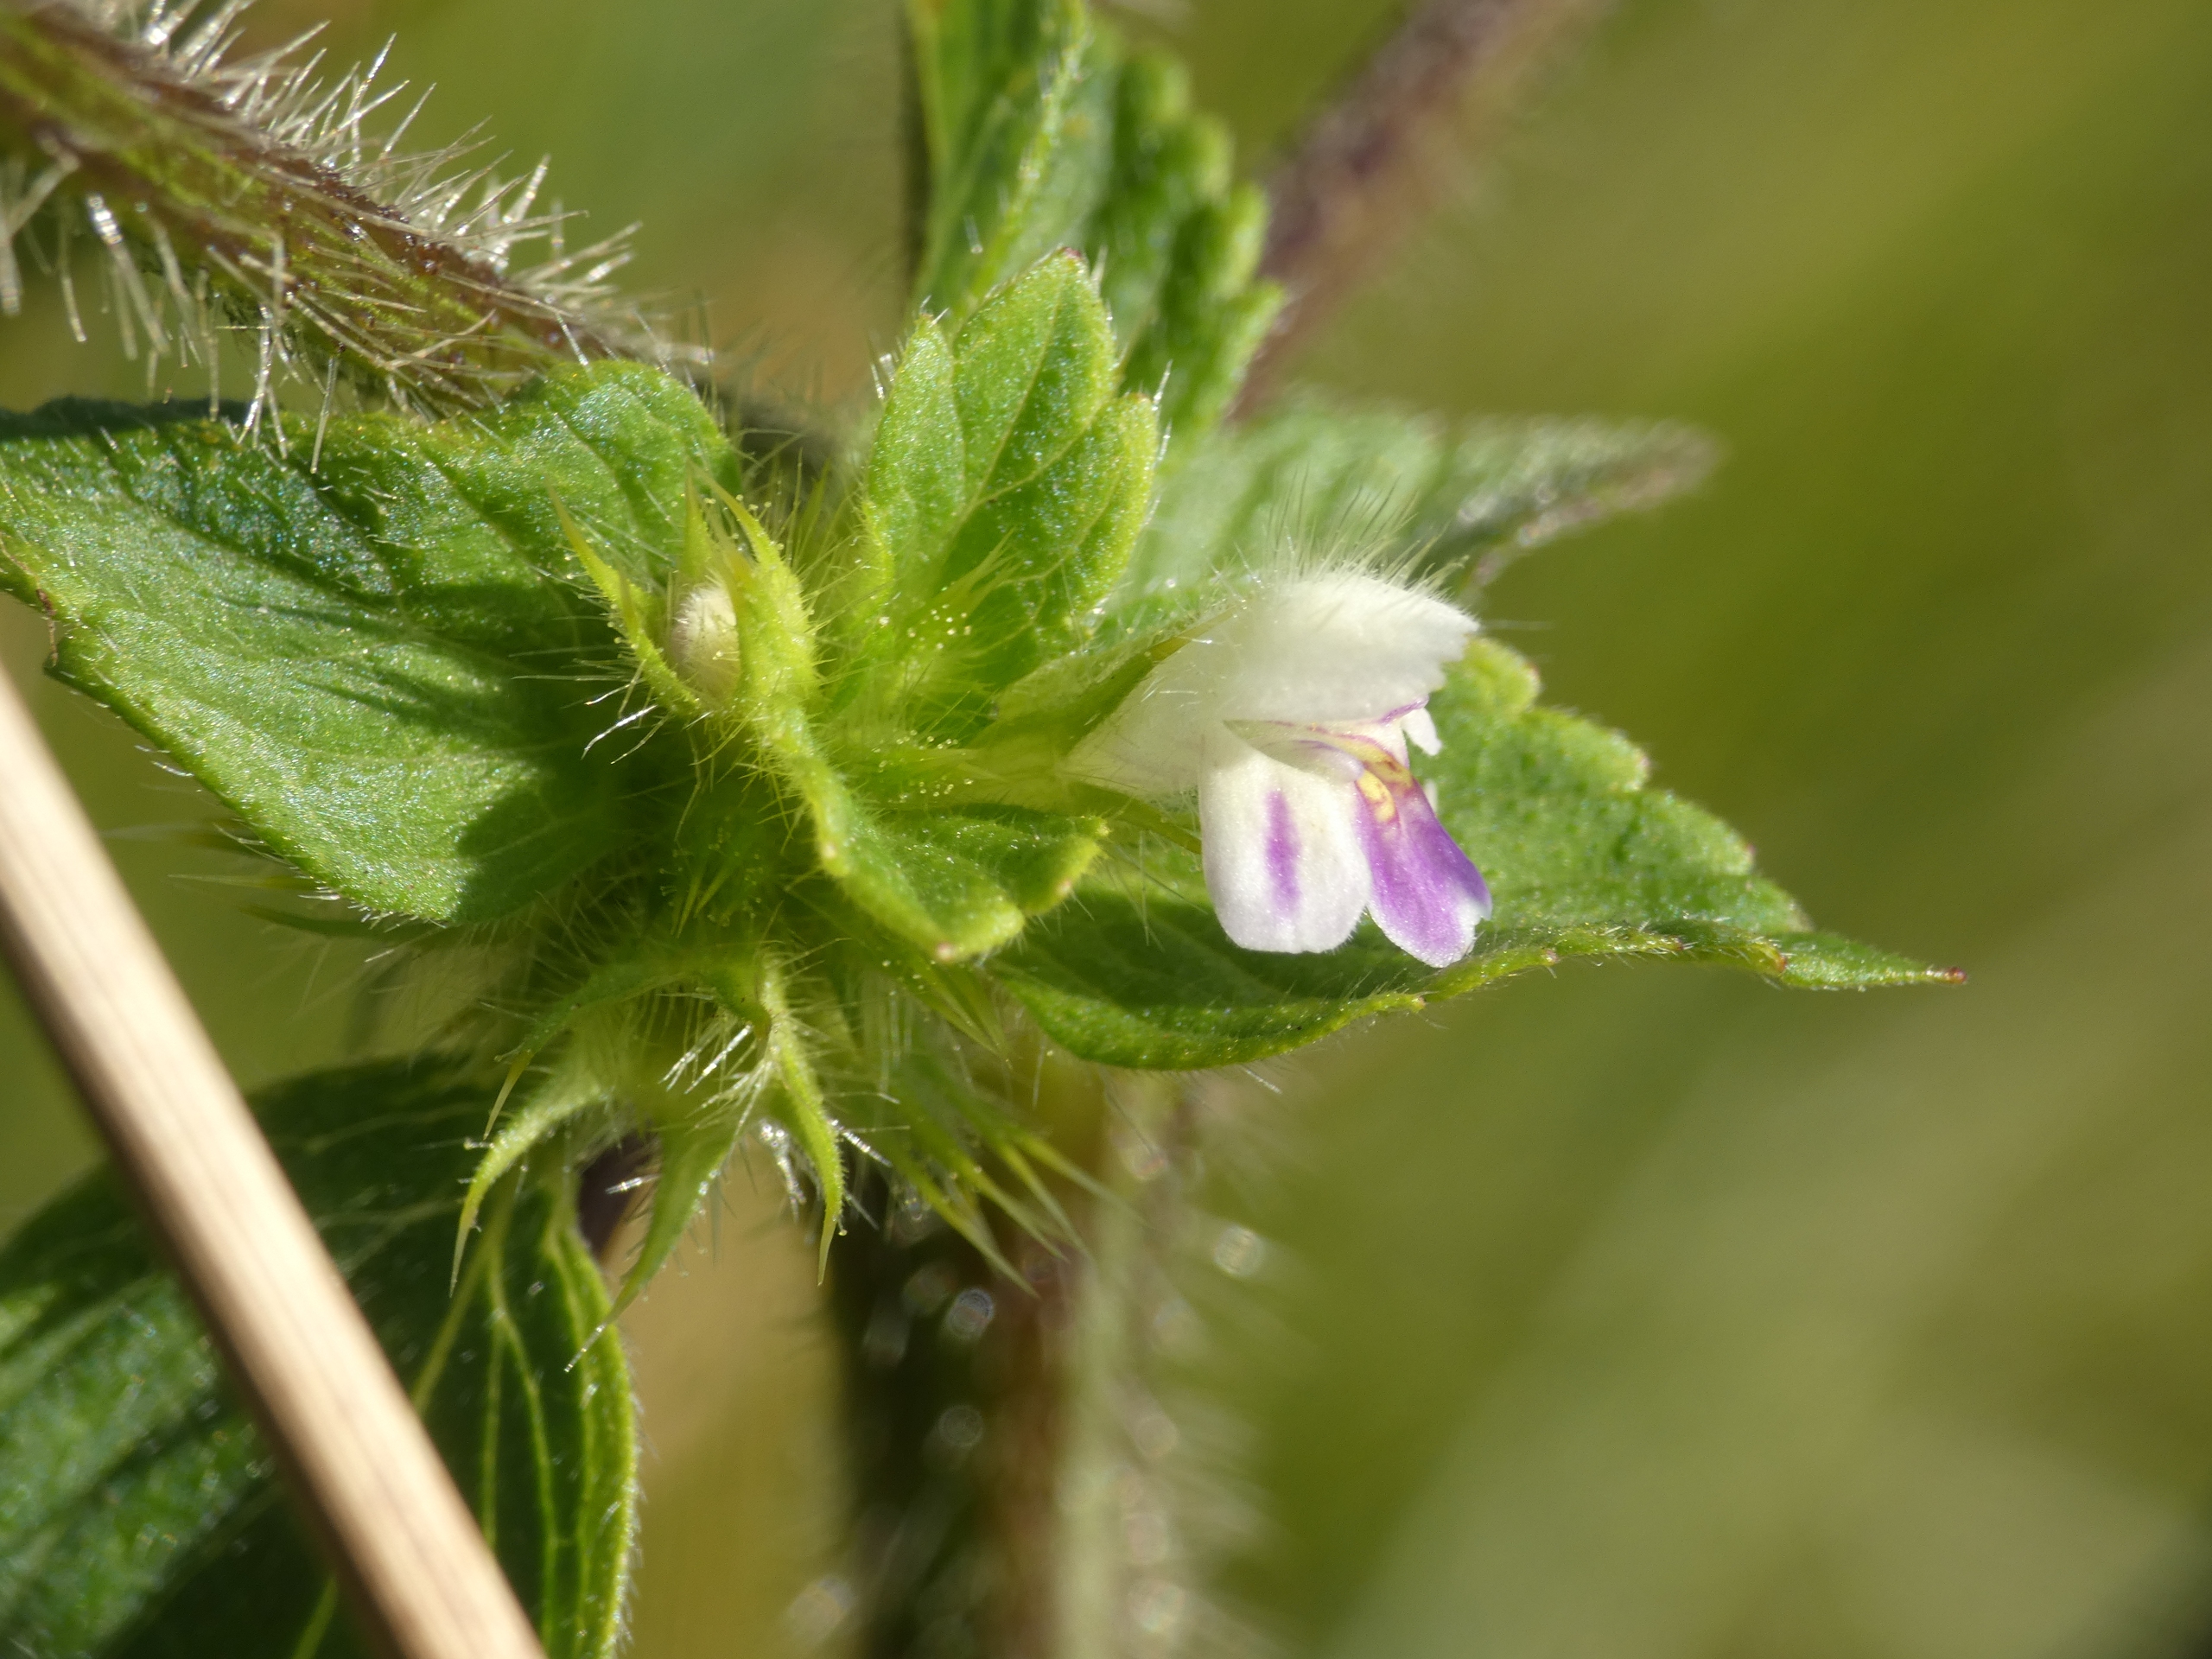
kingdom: Plantae
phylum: Tracheophyta
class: Magnoliopsida
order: Lamiales
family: Lamiaceae
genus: Galeopsis
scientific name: Galeopsis bifida
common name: Skov-hanekro
